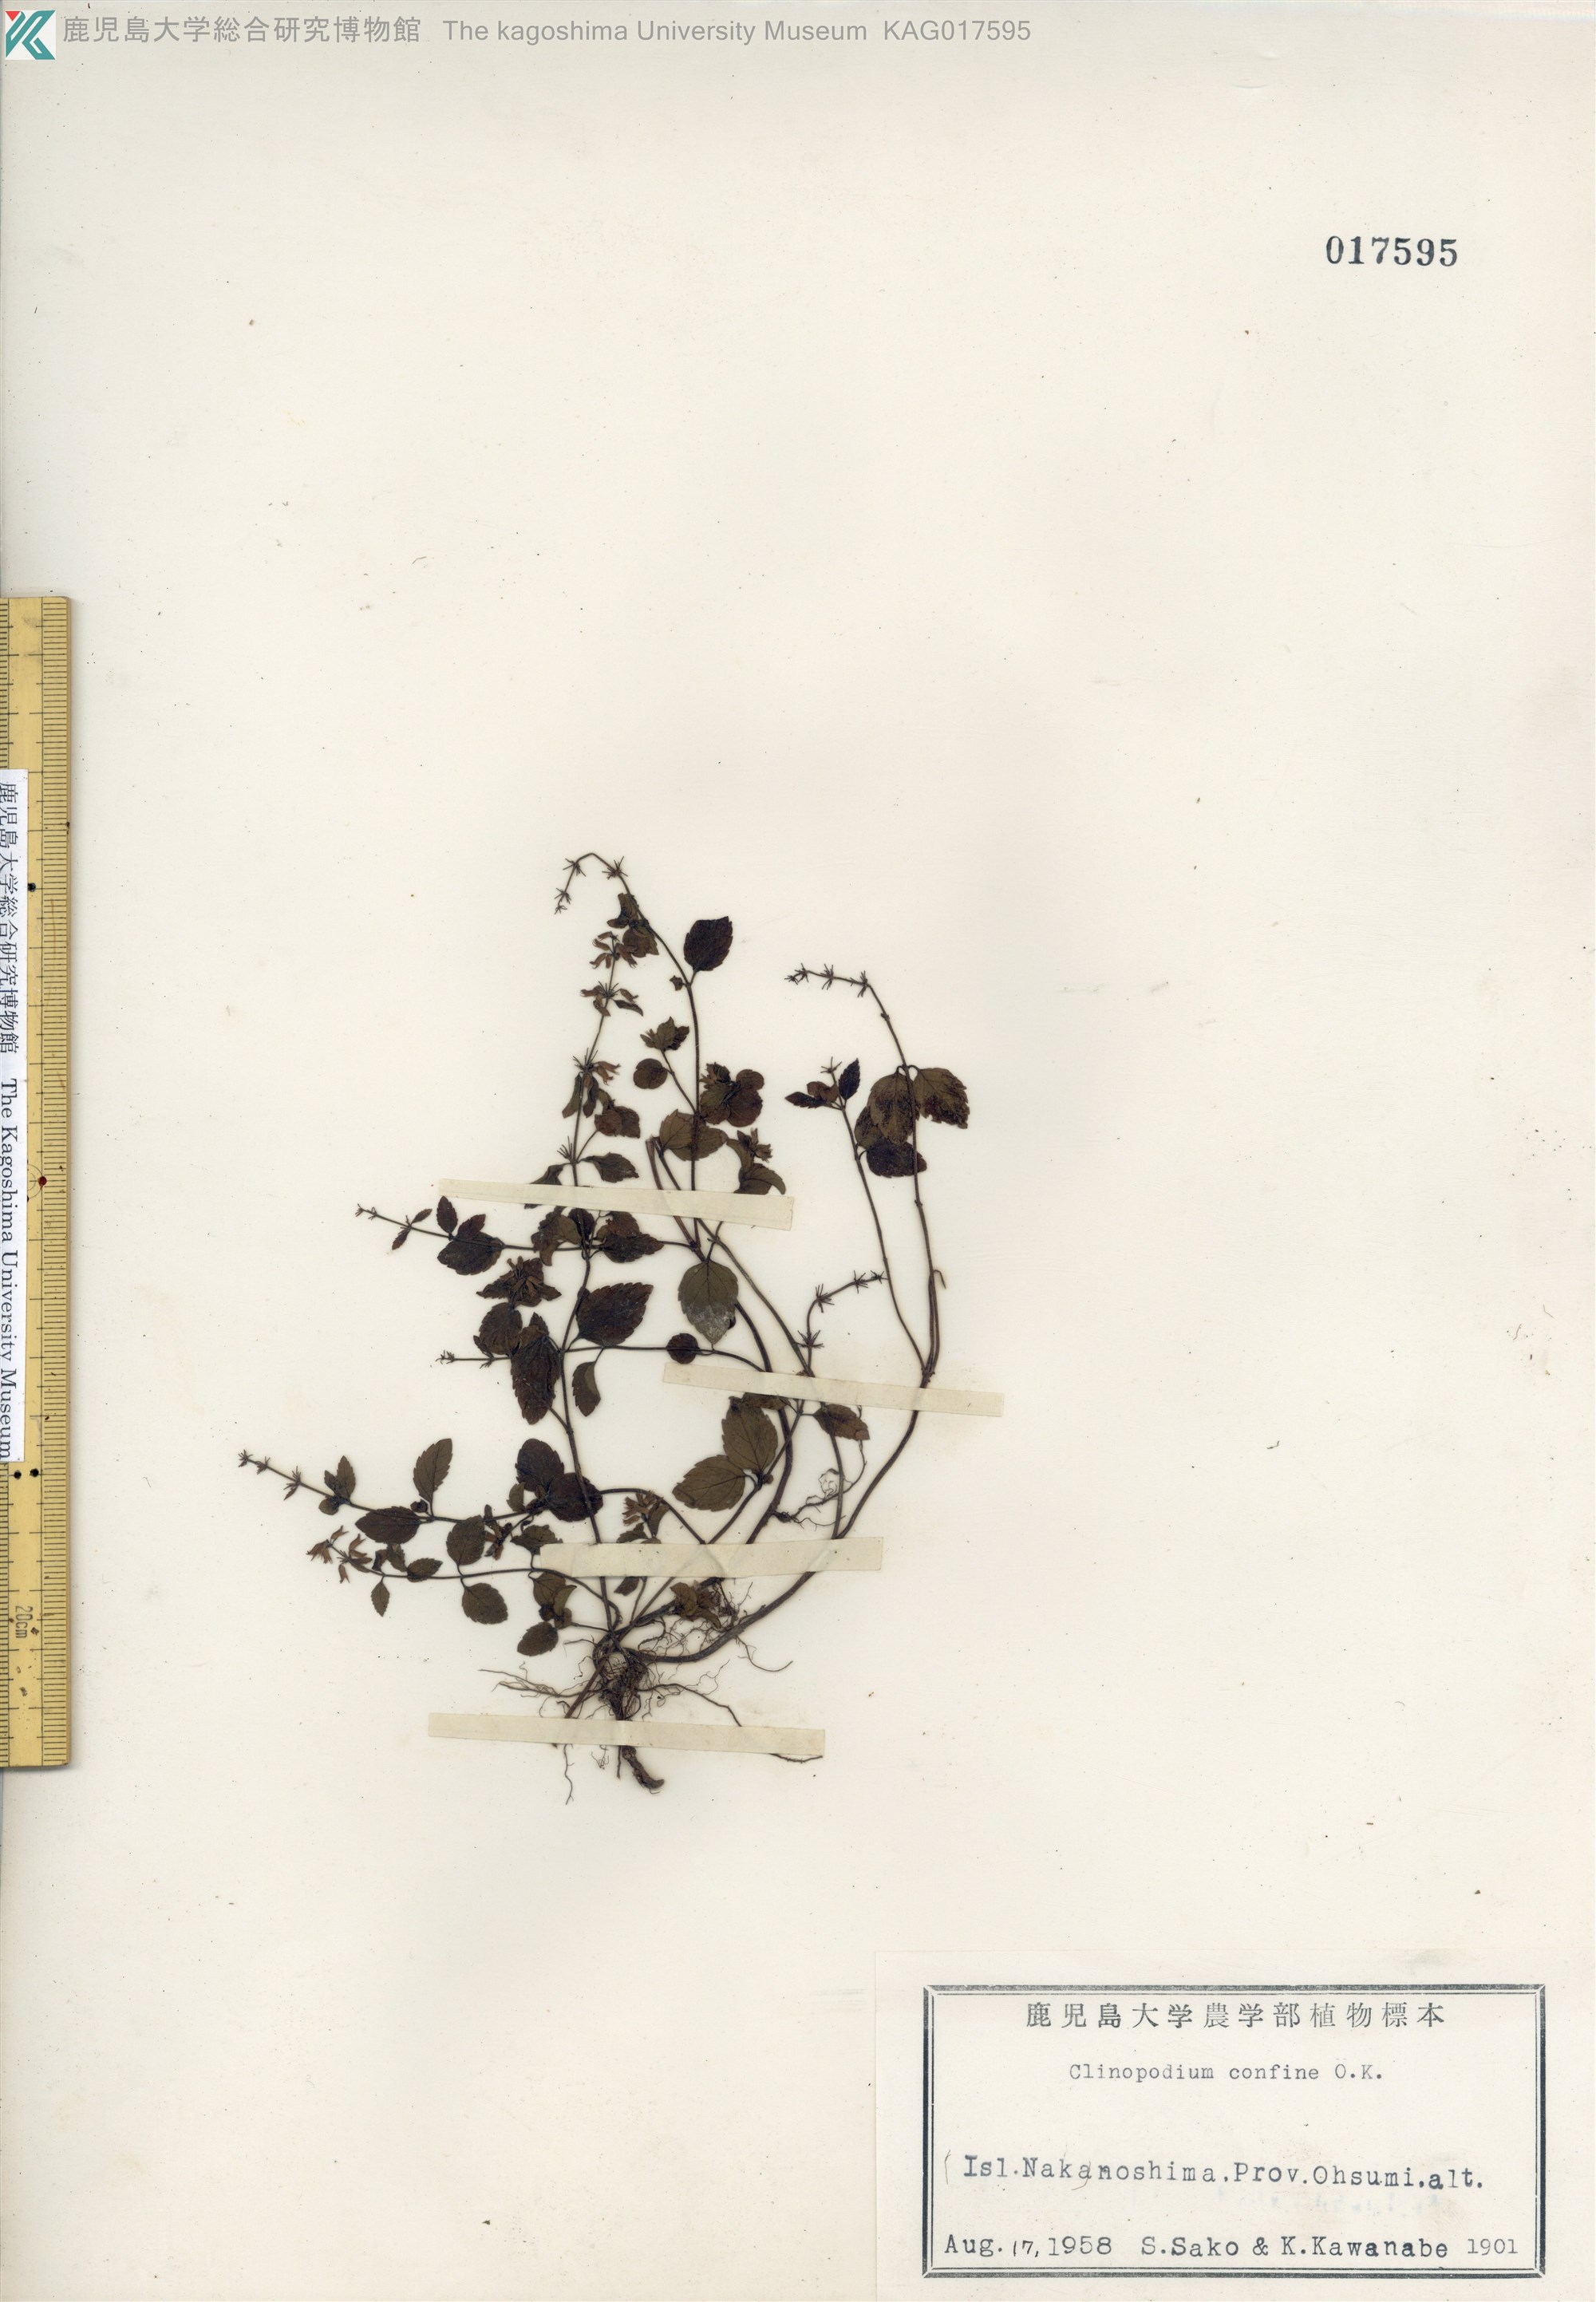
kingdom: Plantae
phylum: Tracheophyta
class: Magnoliopsida
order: Lamiales
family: Lamiaceae
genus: Clinopodium
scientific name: Clinopodium gracile
